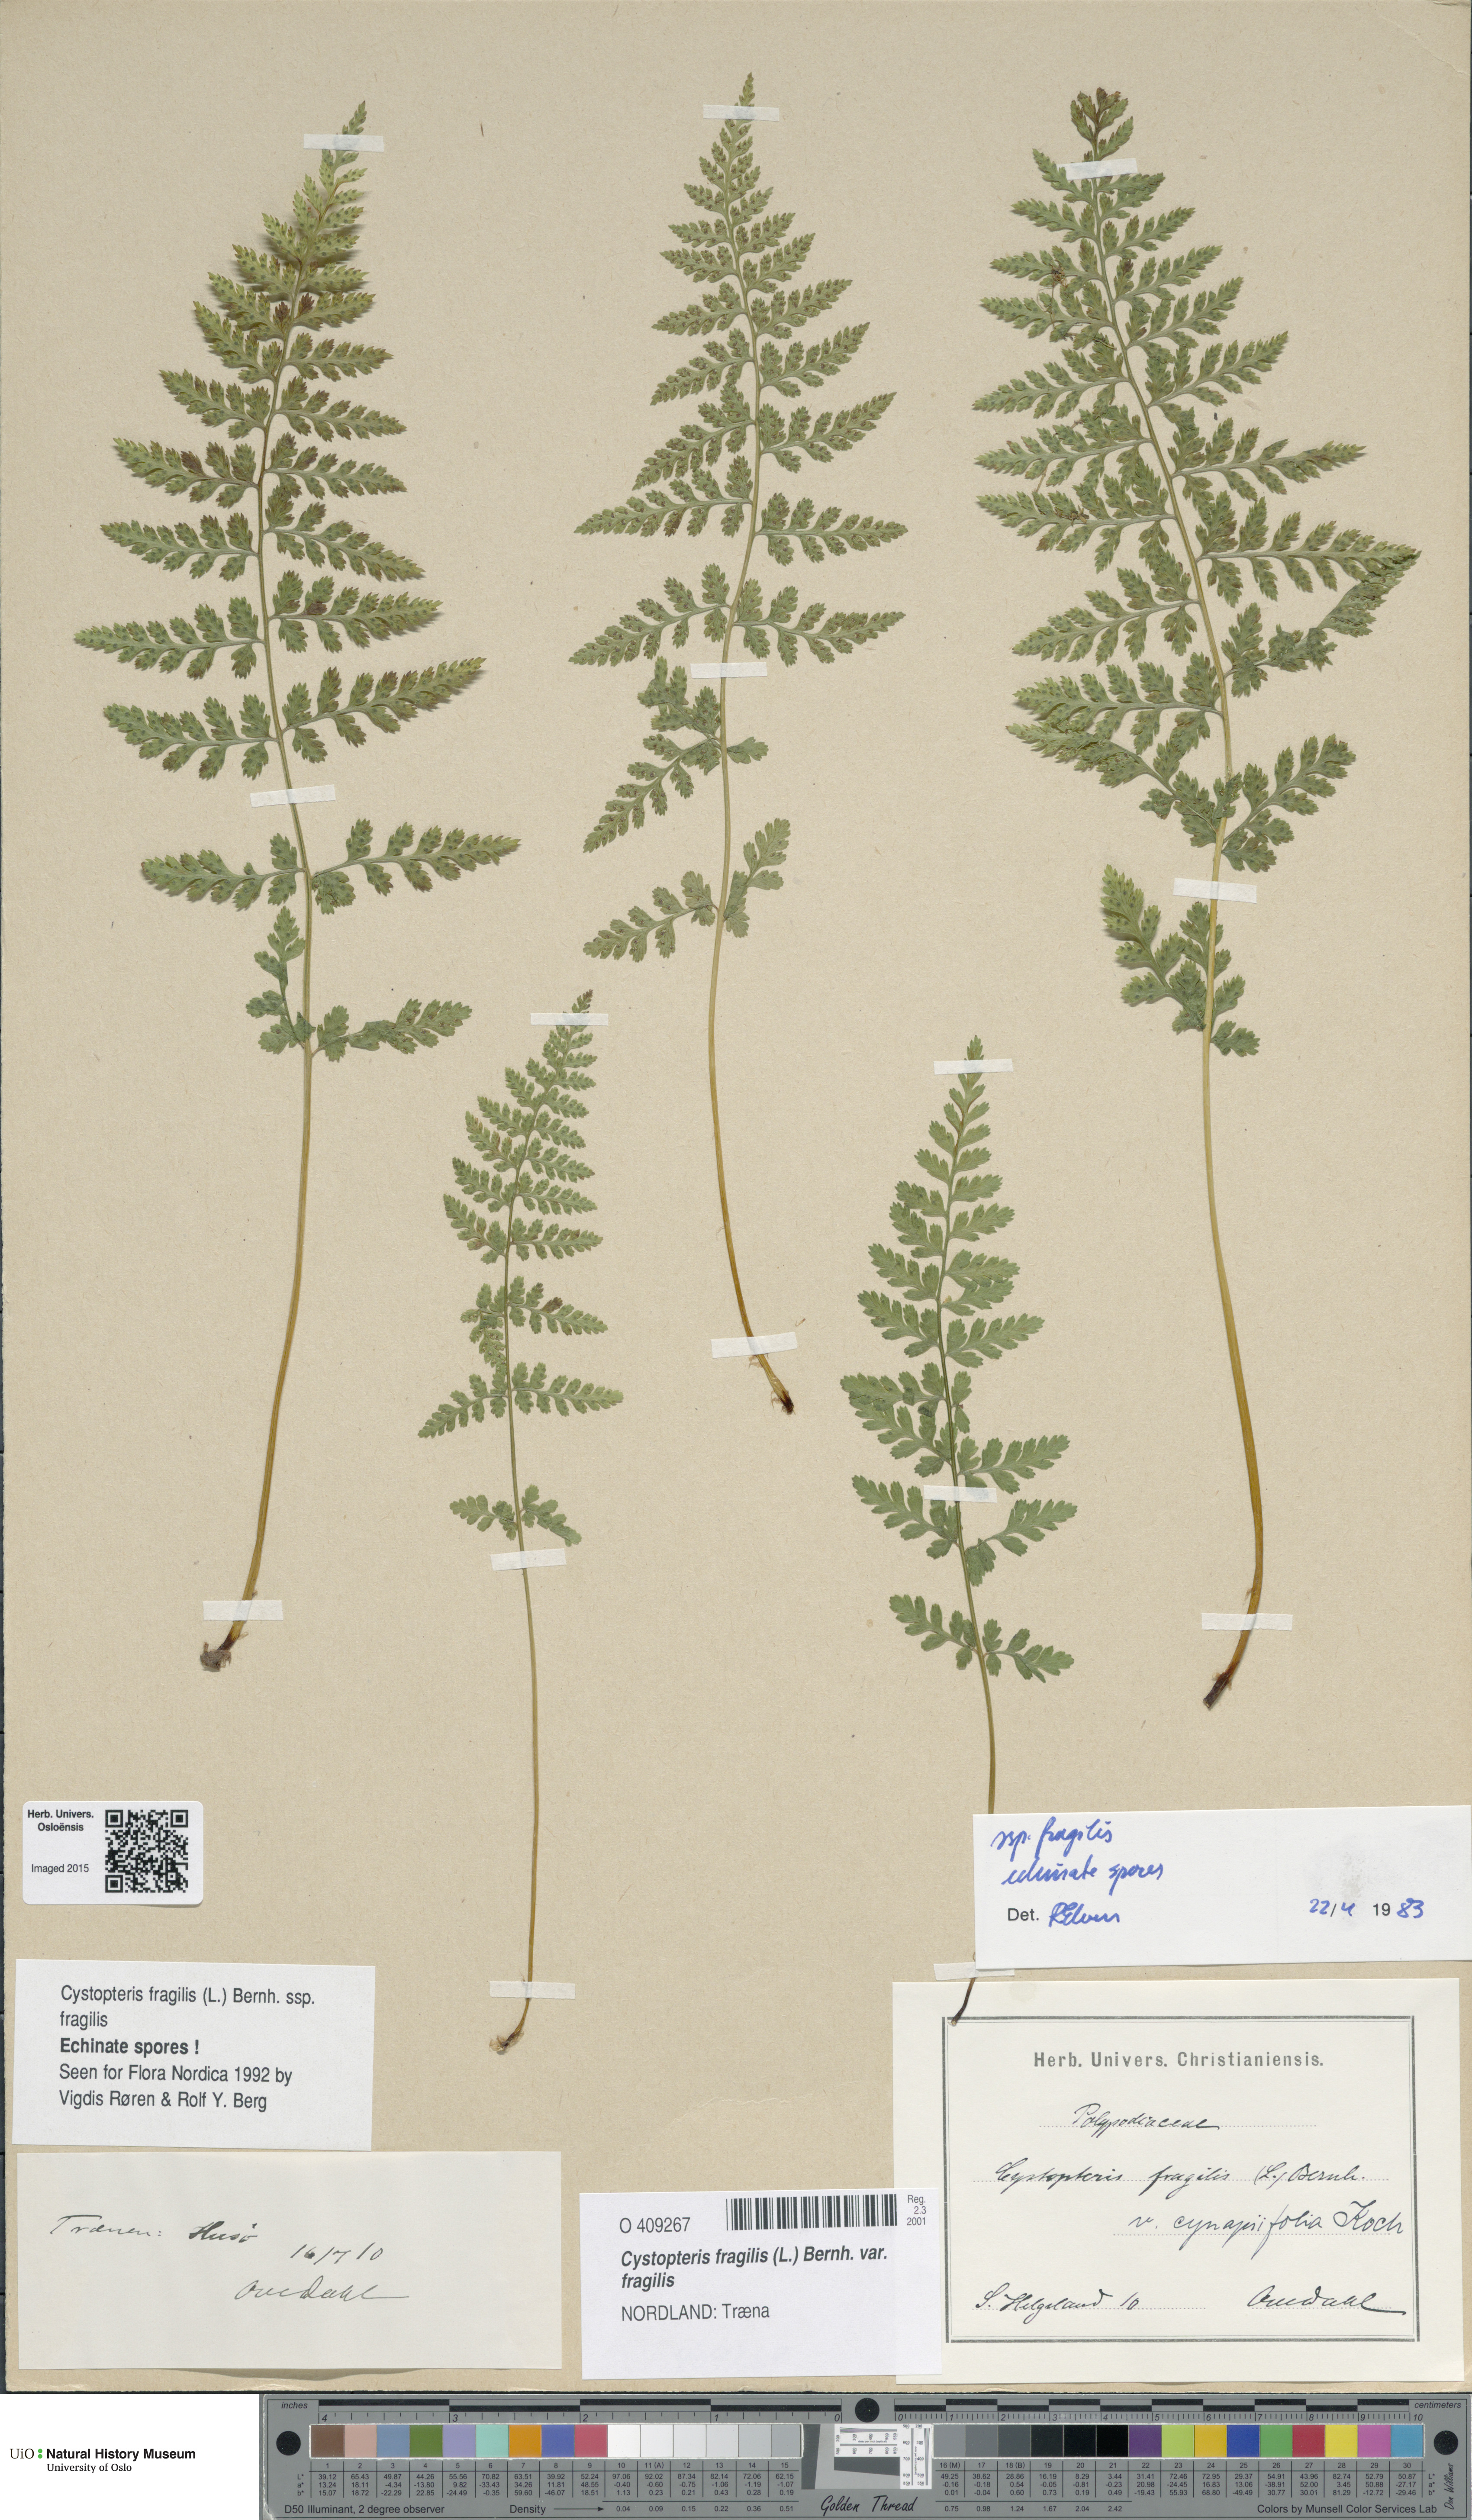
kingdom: Plantae
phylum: Tracheophyta
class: Polypodiopsida
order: Polypodiales
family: Cystopteridaceae
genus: Cystopteris
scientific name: Cystopteris fragilis
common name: Brittle bladder fern
